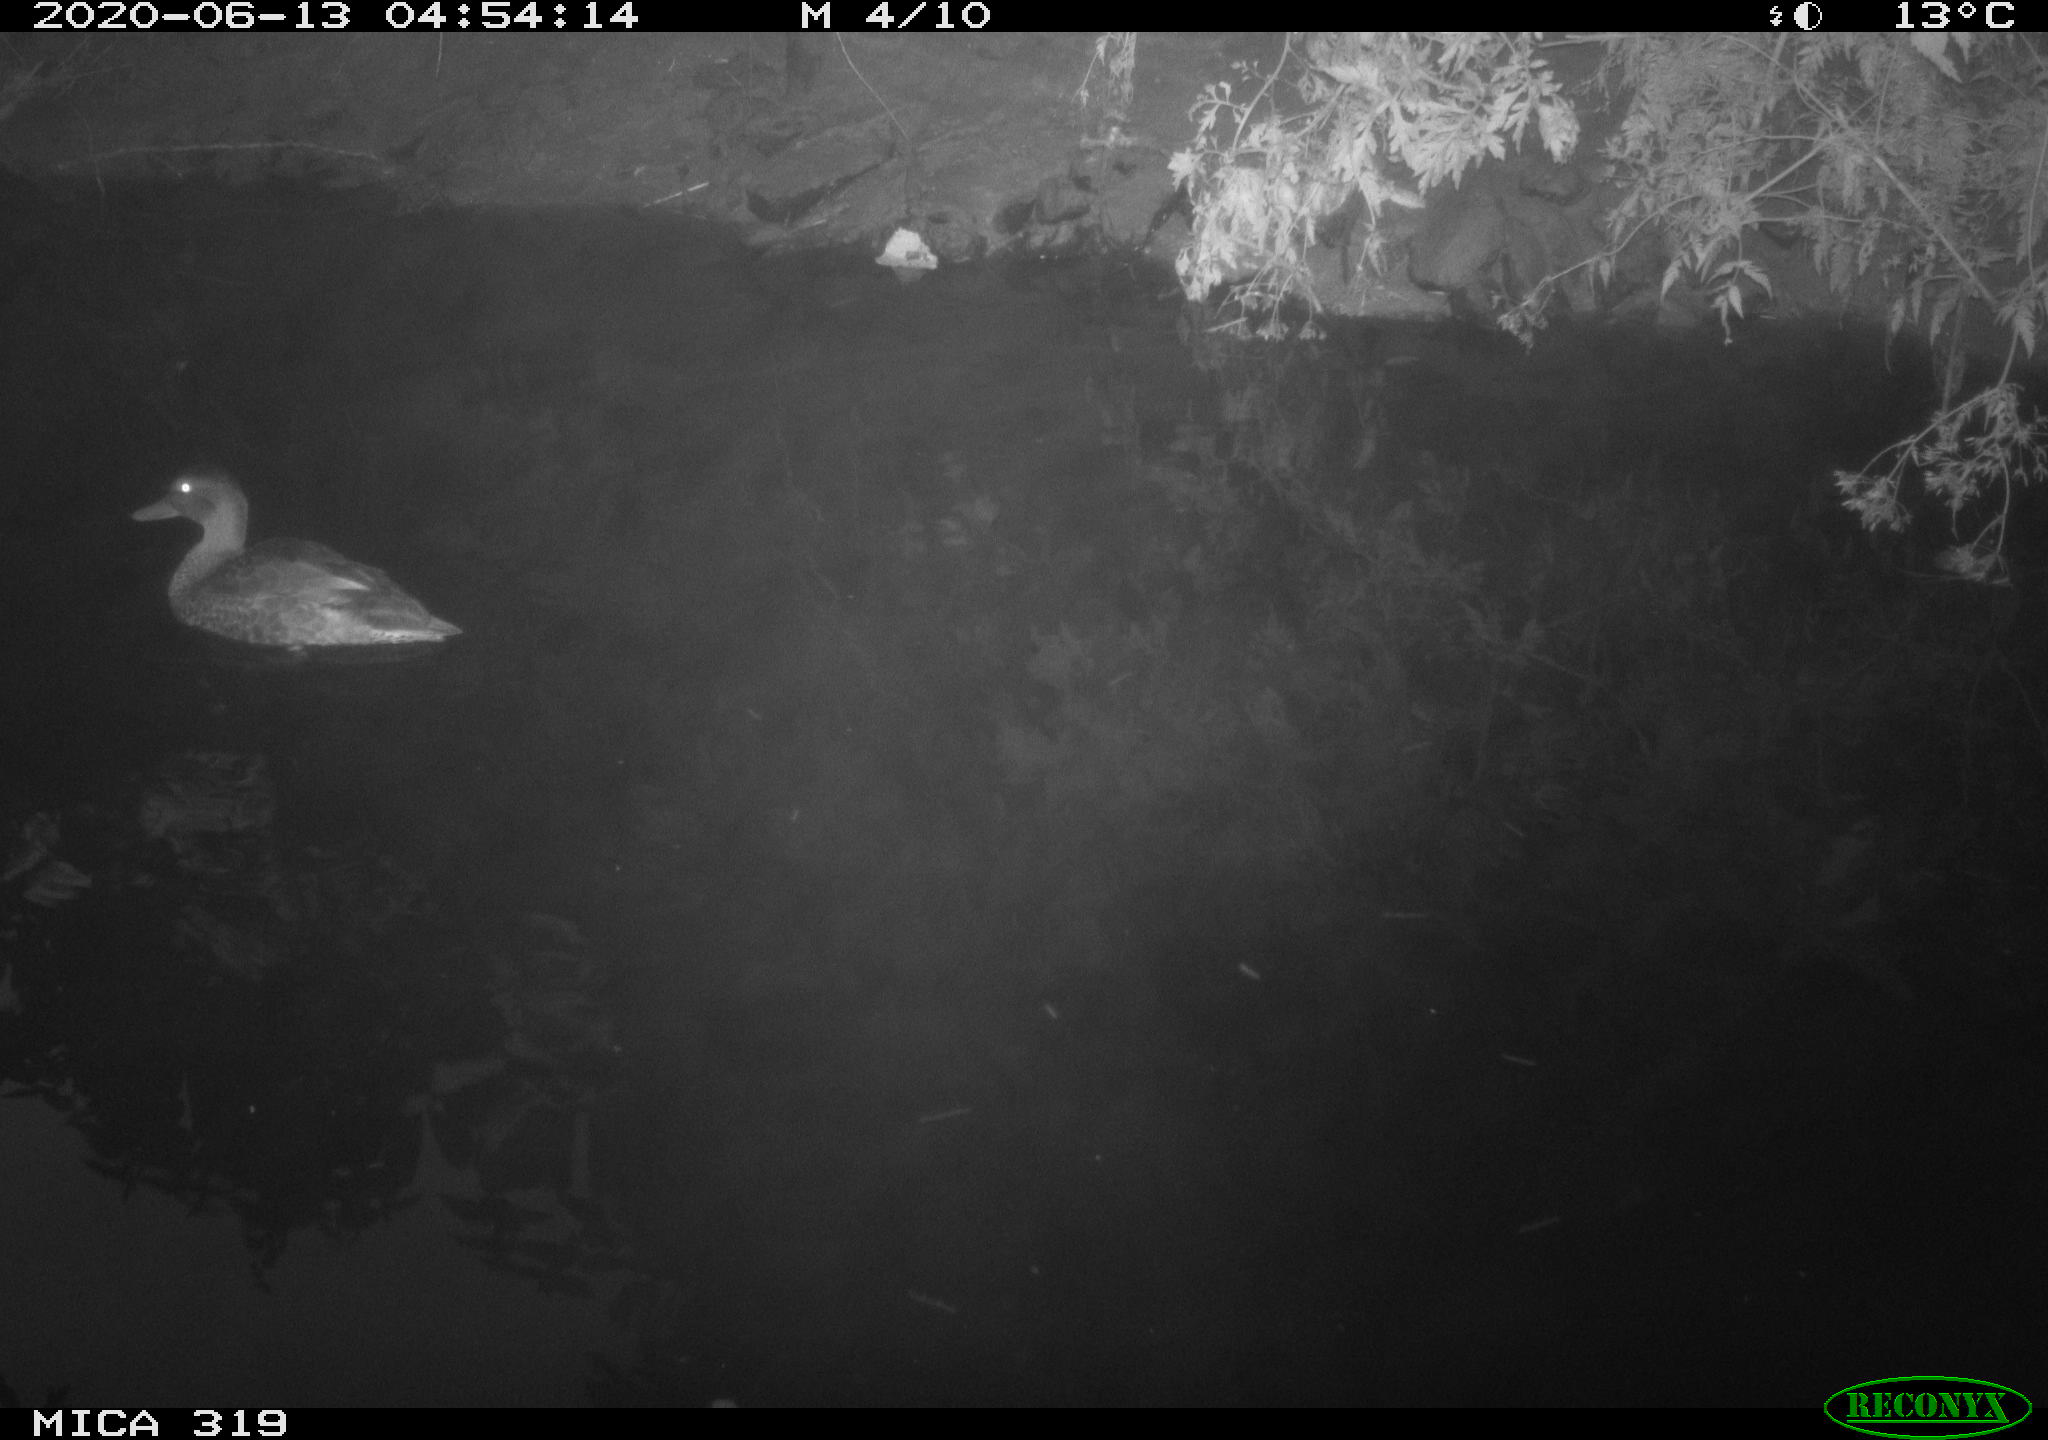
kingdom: Animalia
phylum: Chordata
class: Aves
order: Anseriformes
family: Anatidae
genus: Anas
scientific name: Anas platyrhynchos
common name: Mallard
